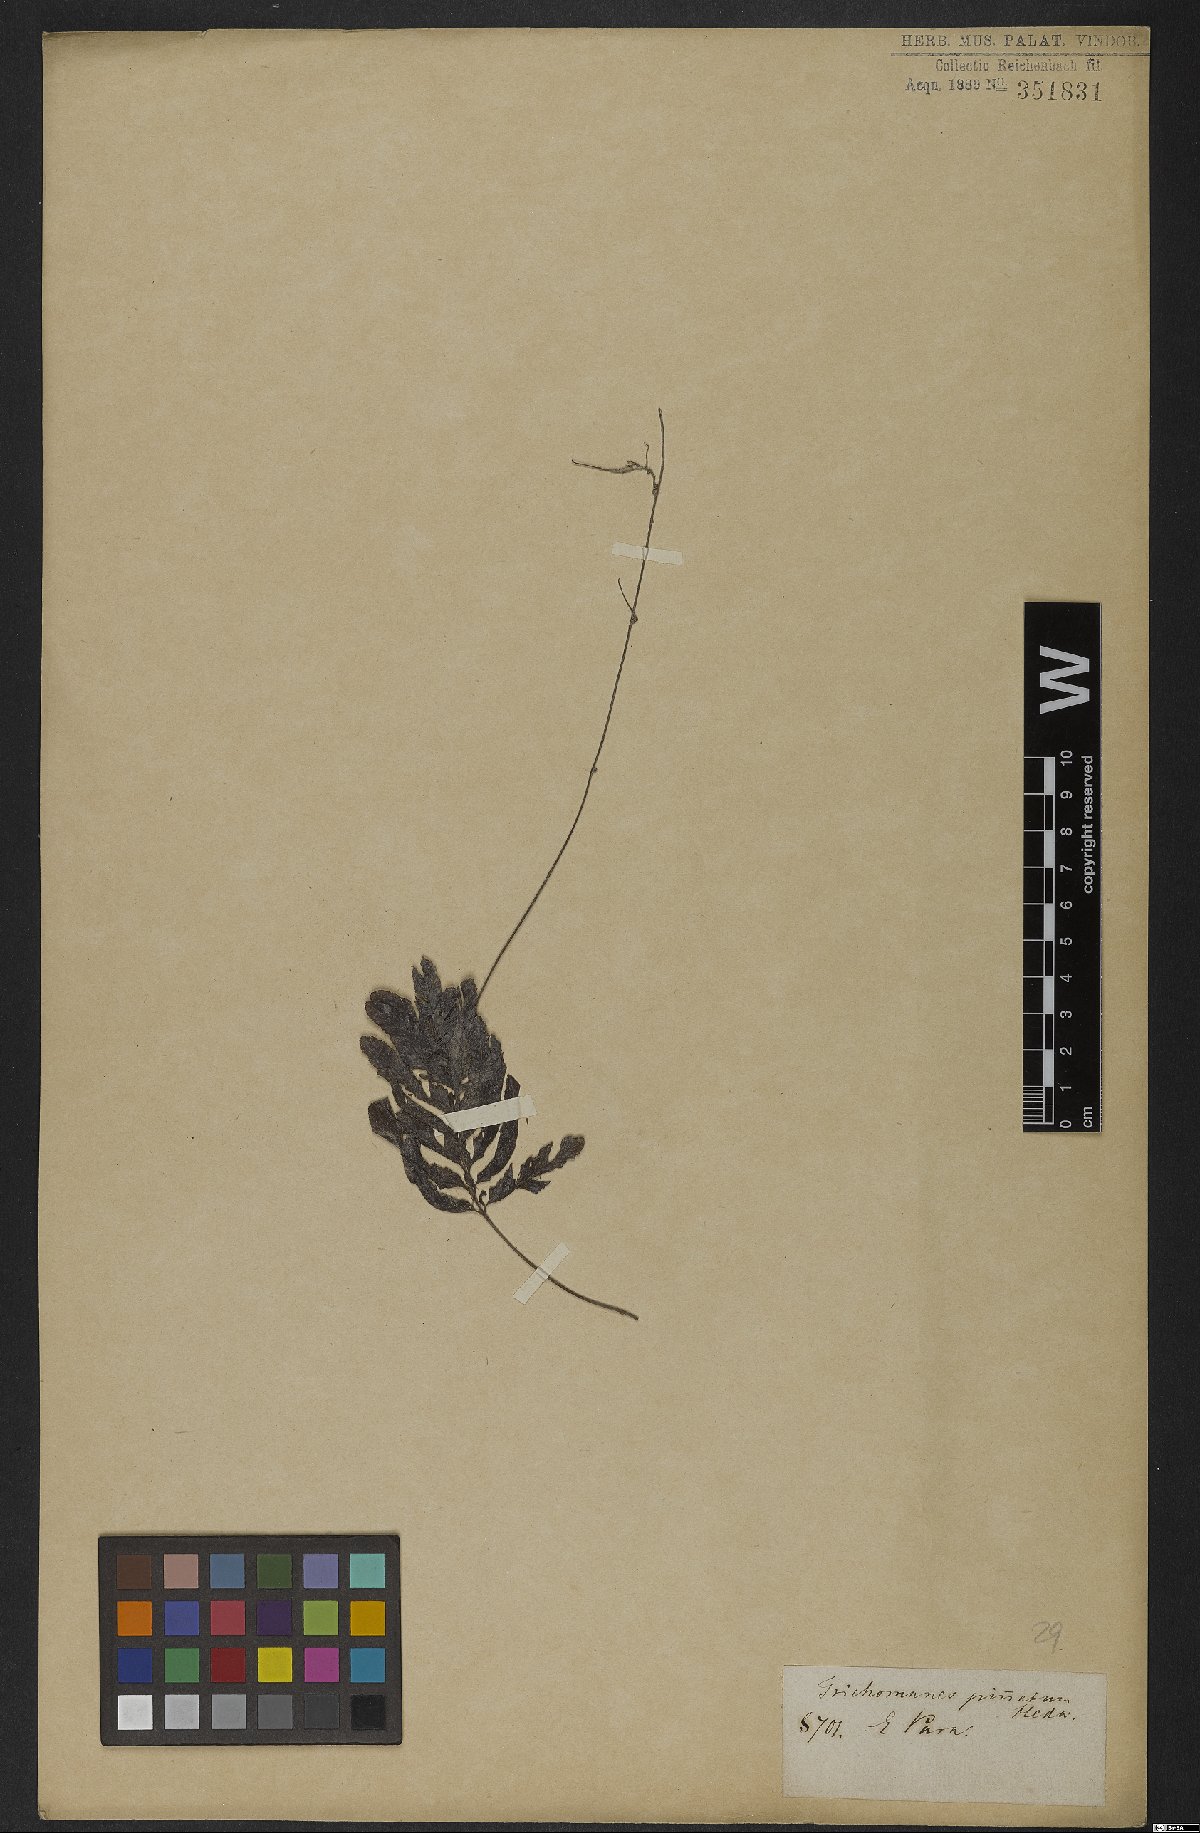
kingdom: Plantae
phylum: Tracheophyta
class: Polypodiopsida
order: Hymenophyllales
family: Hymenophyllaceae
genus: Trichomanes
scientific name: Trichomanes pinnatum
